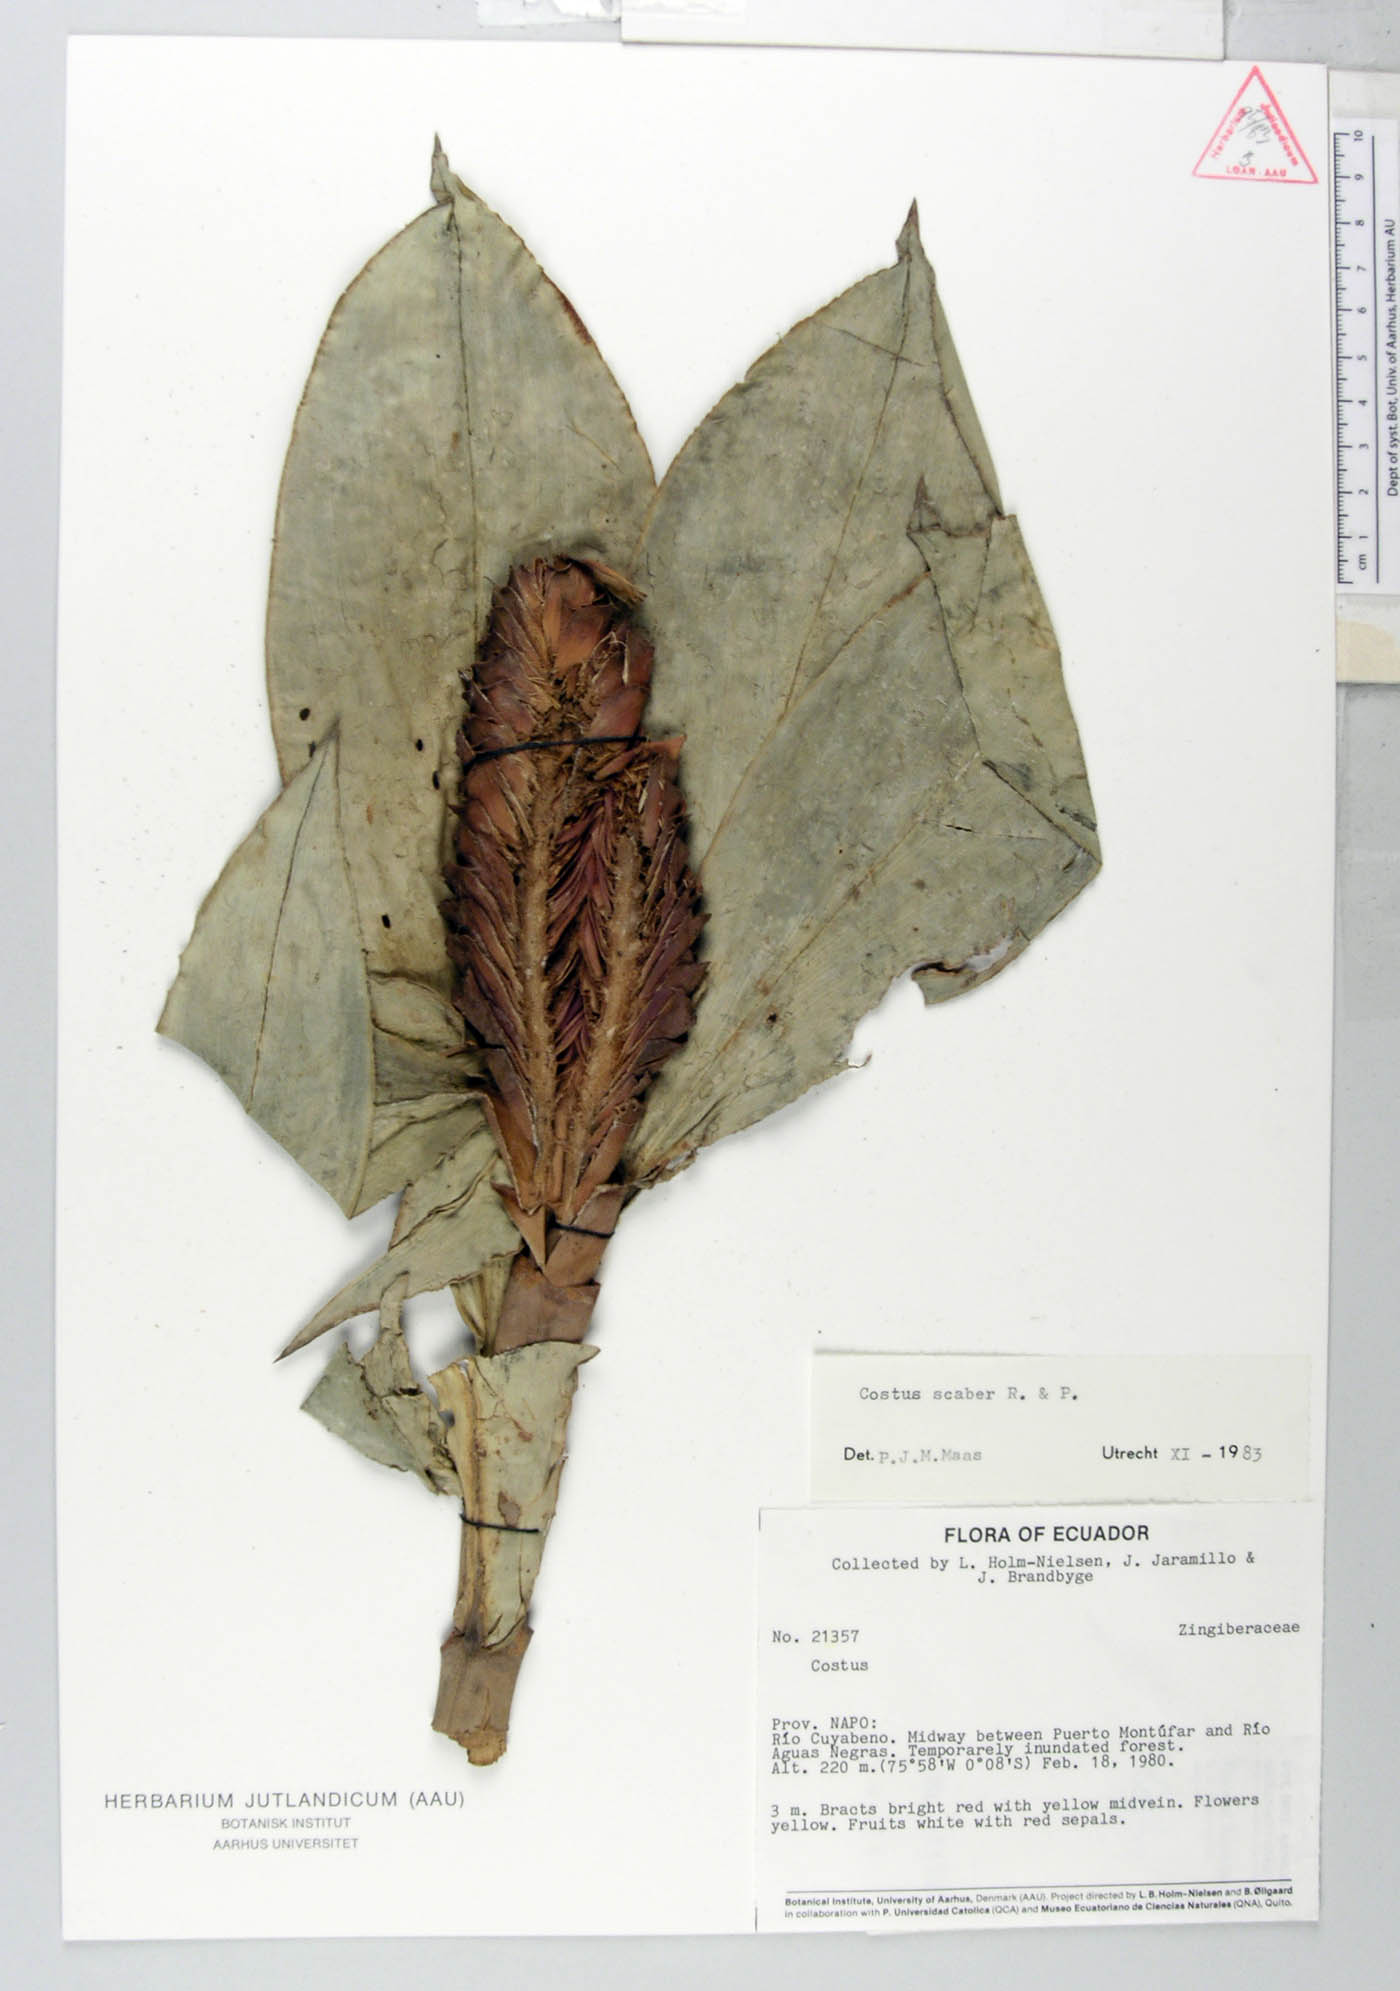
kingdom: Plantae
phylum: Tracheophyta
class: Liliopsida
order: Zingiberales
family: Costaceae
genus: Costus
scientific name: Costus scaber
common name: Spiral head ginger
